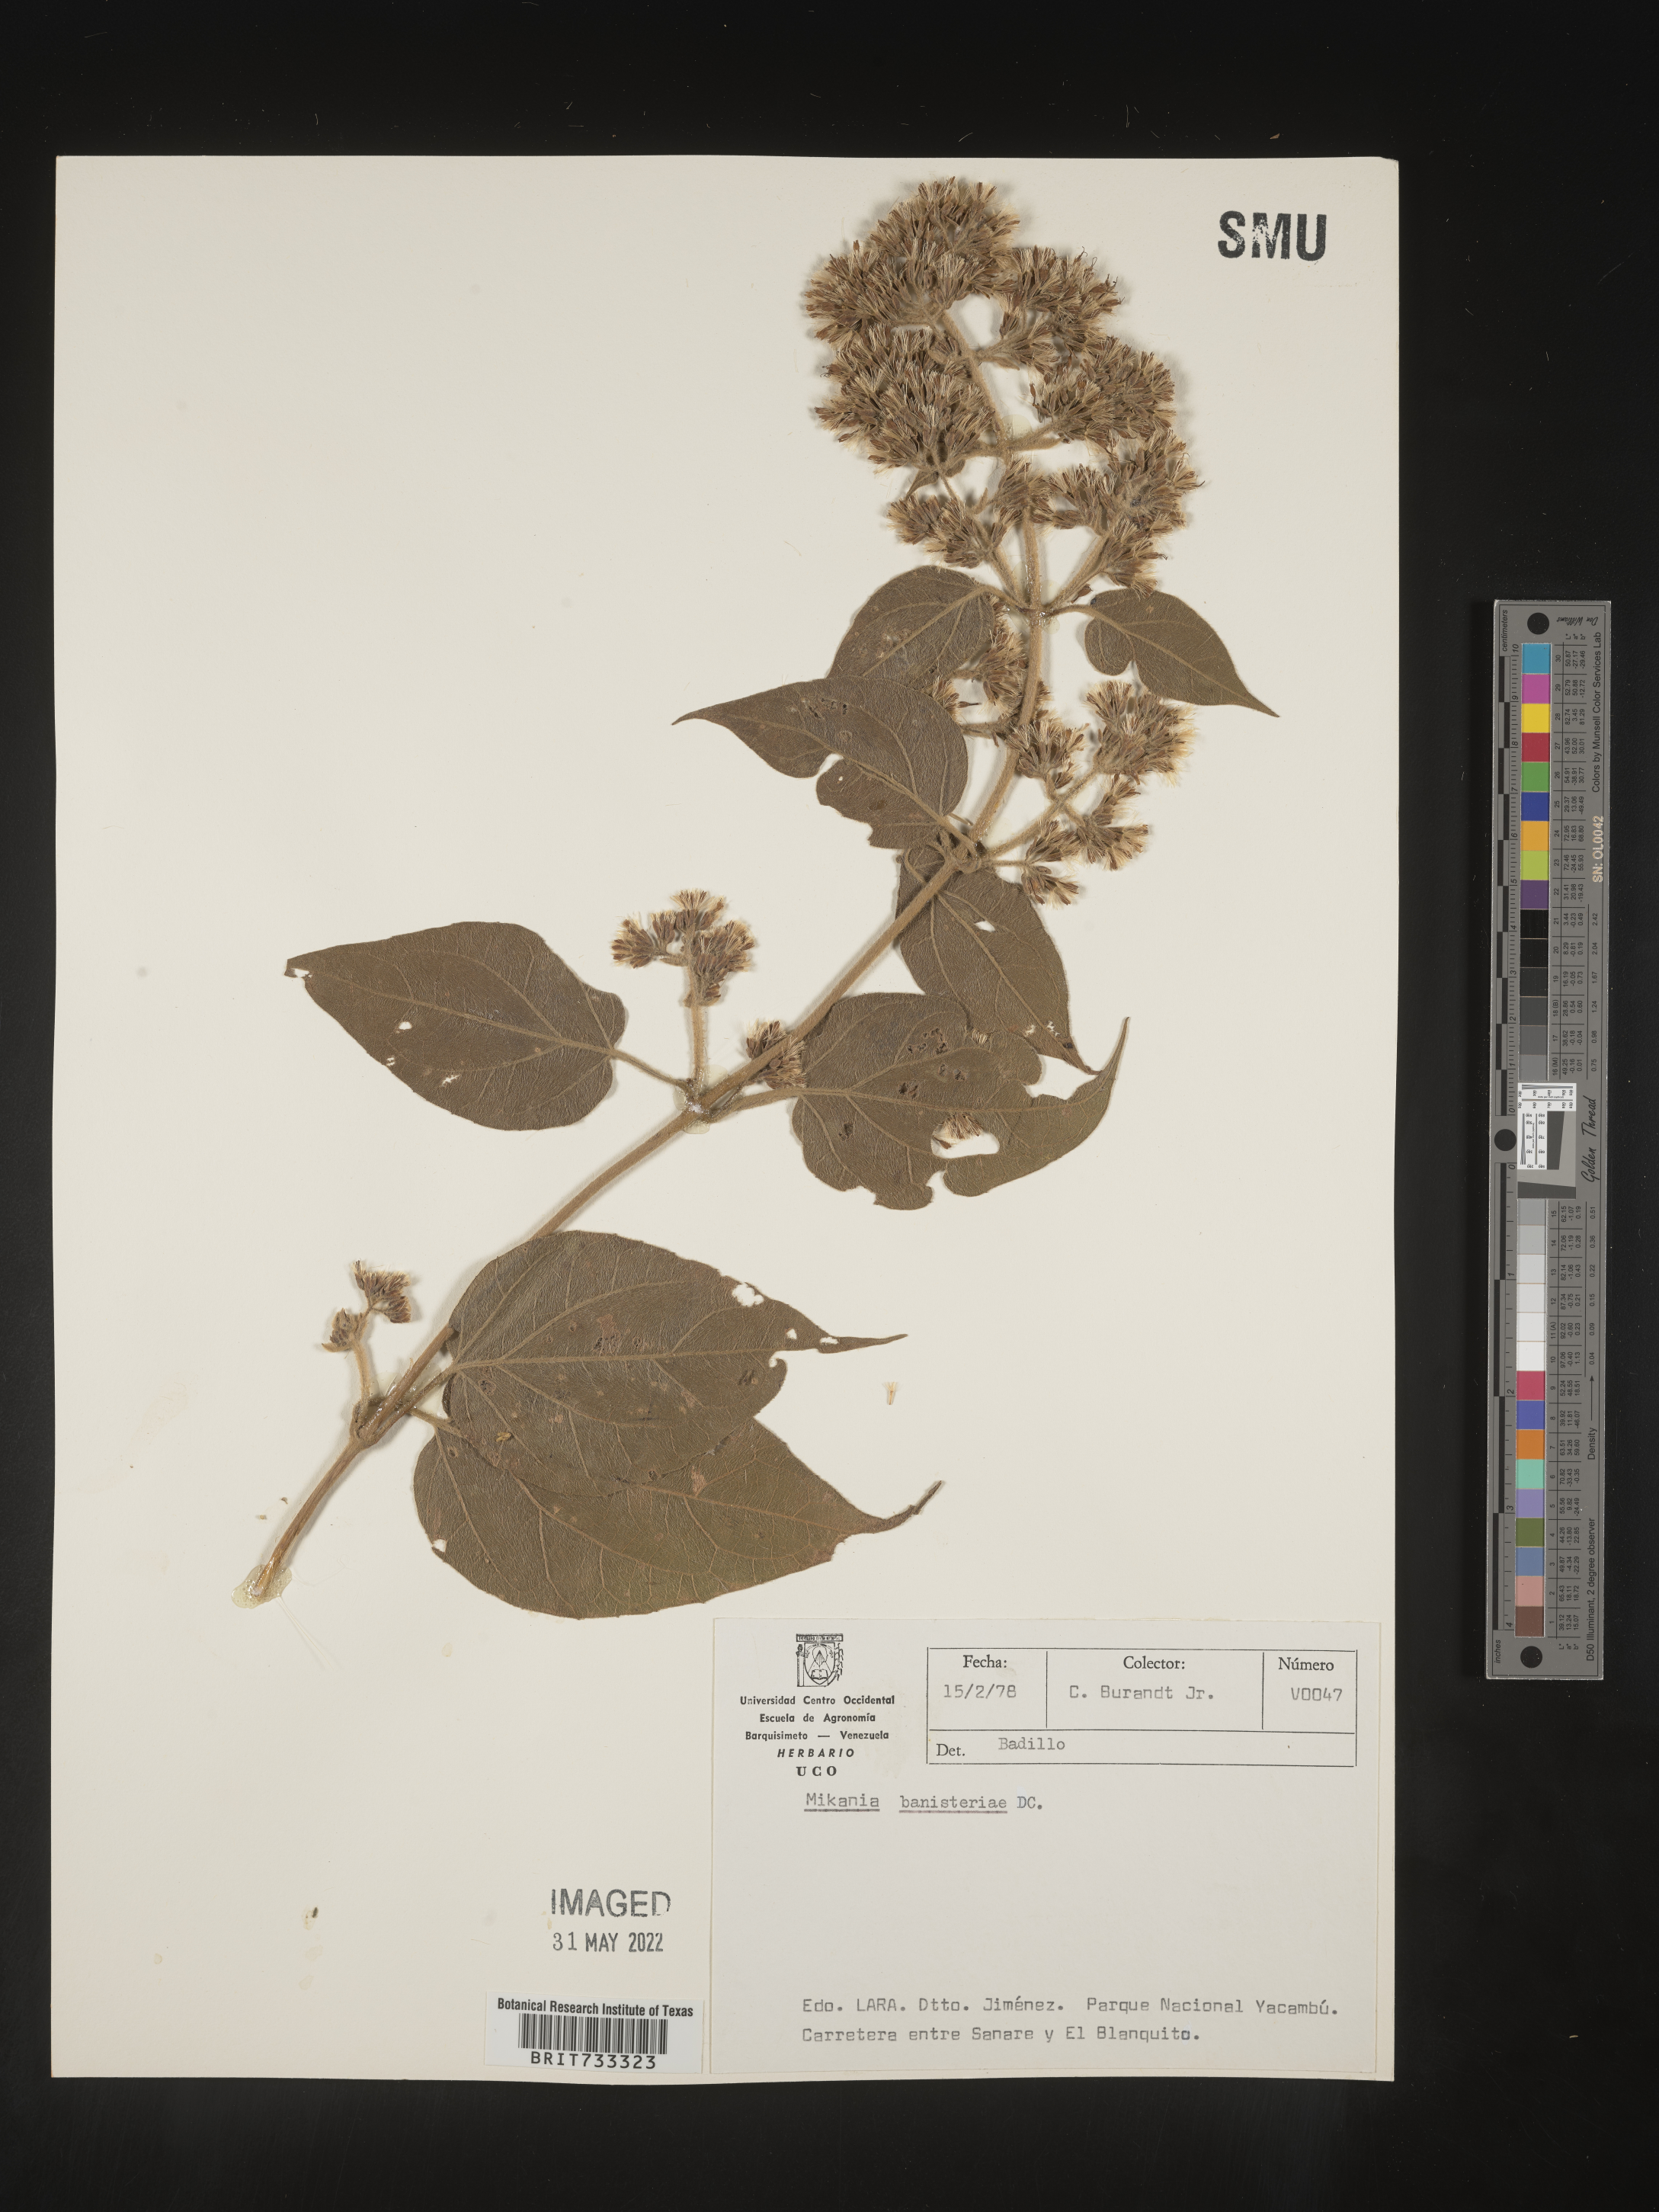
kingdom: Plantae
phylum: Tracheophyta
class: Magnoliopsida
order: Asterales
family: Asteraceae
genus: Mikania
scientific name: Mikania
